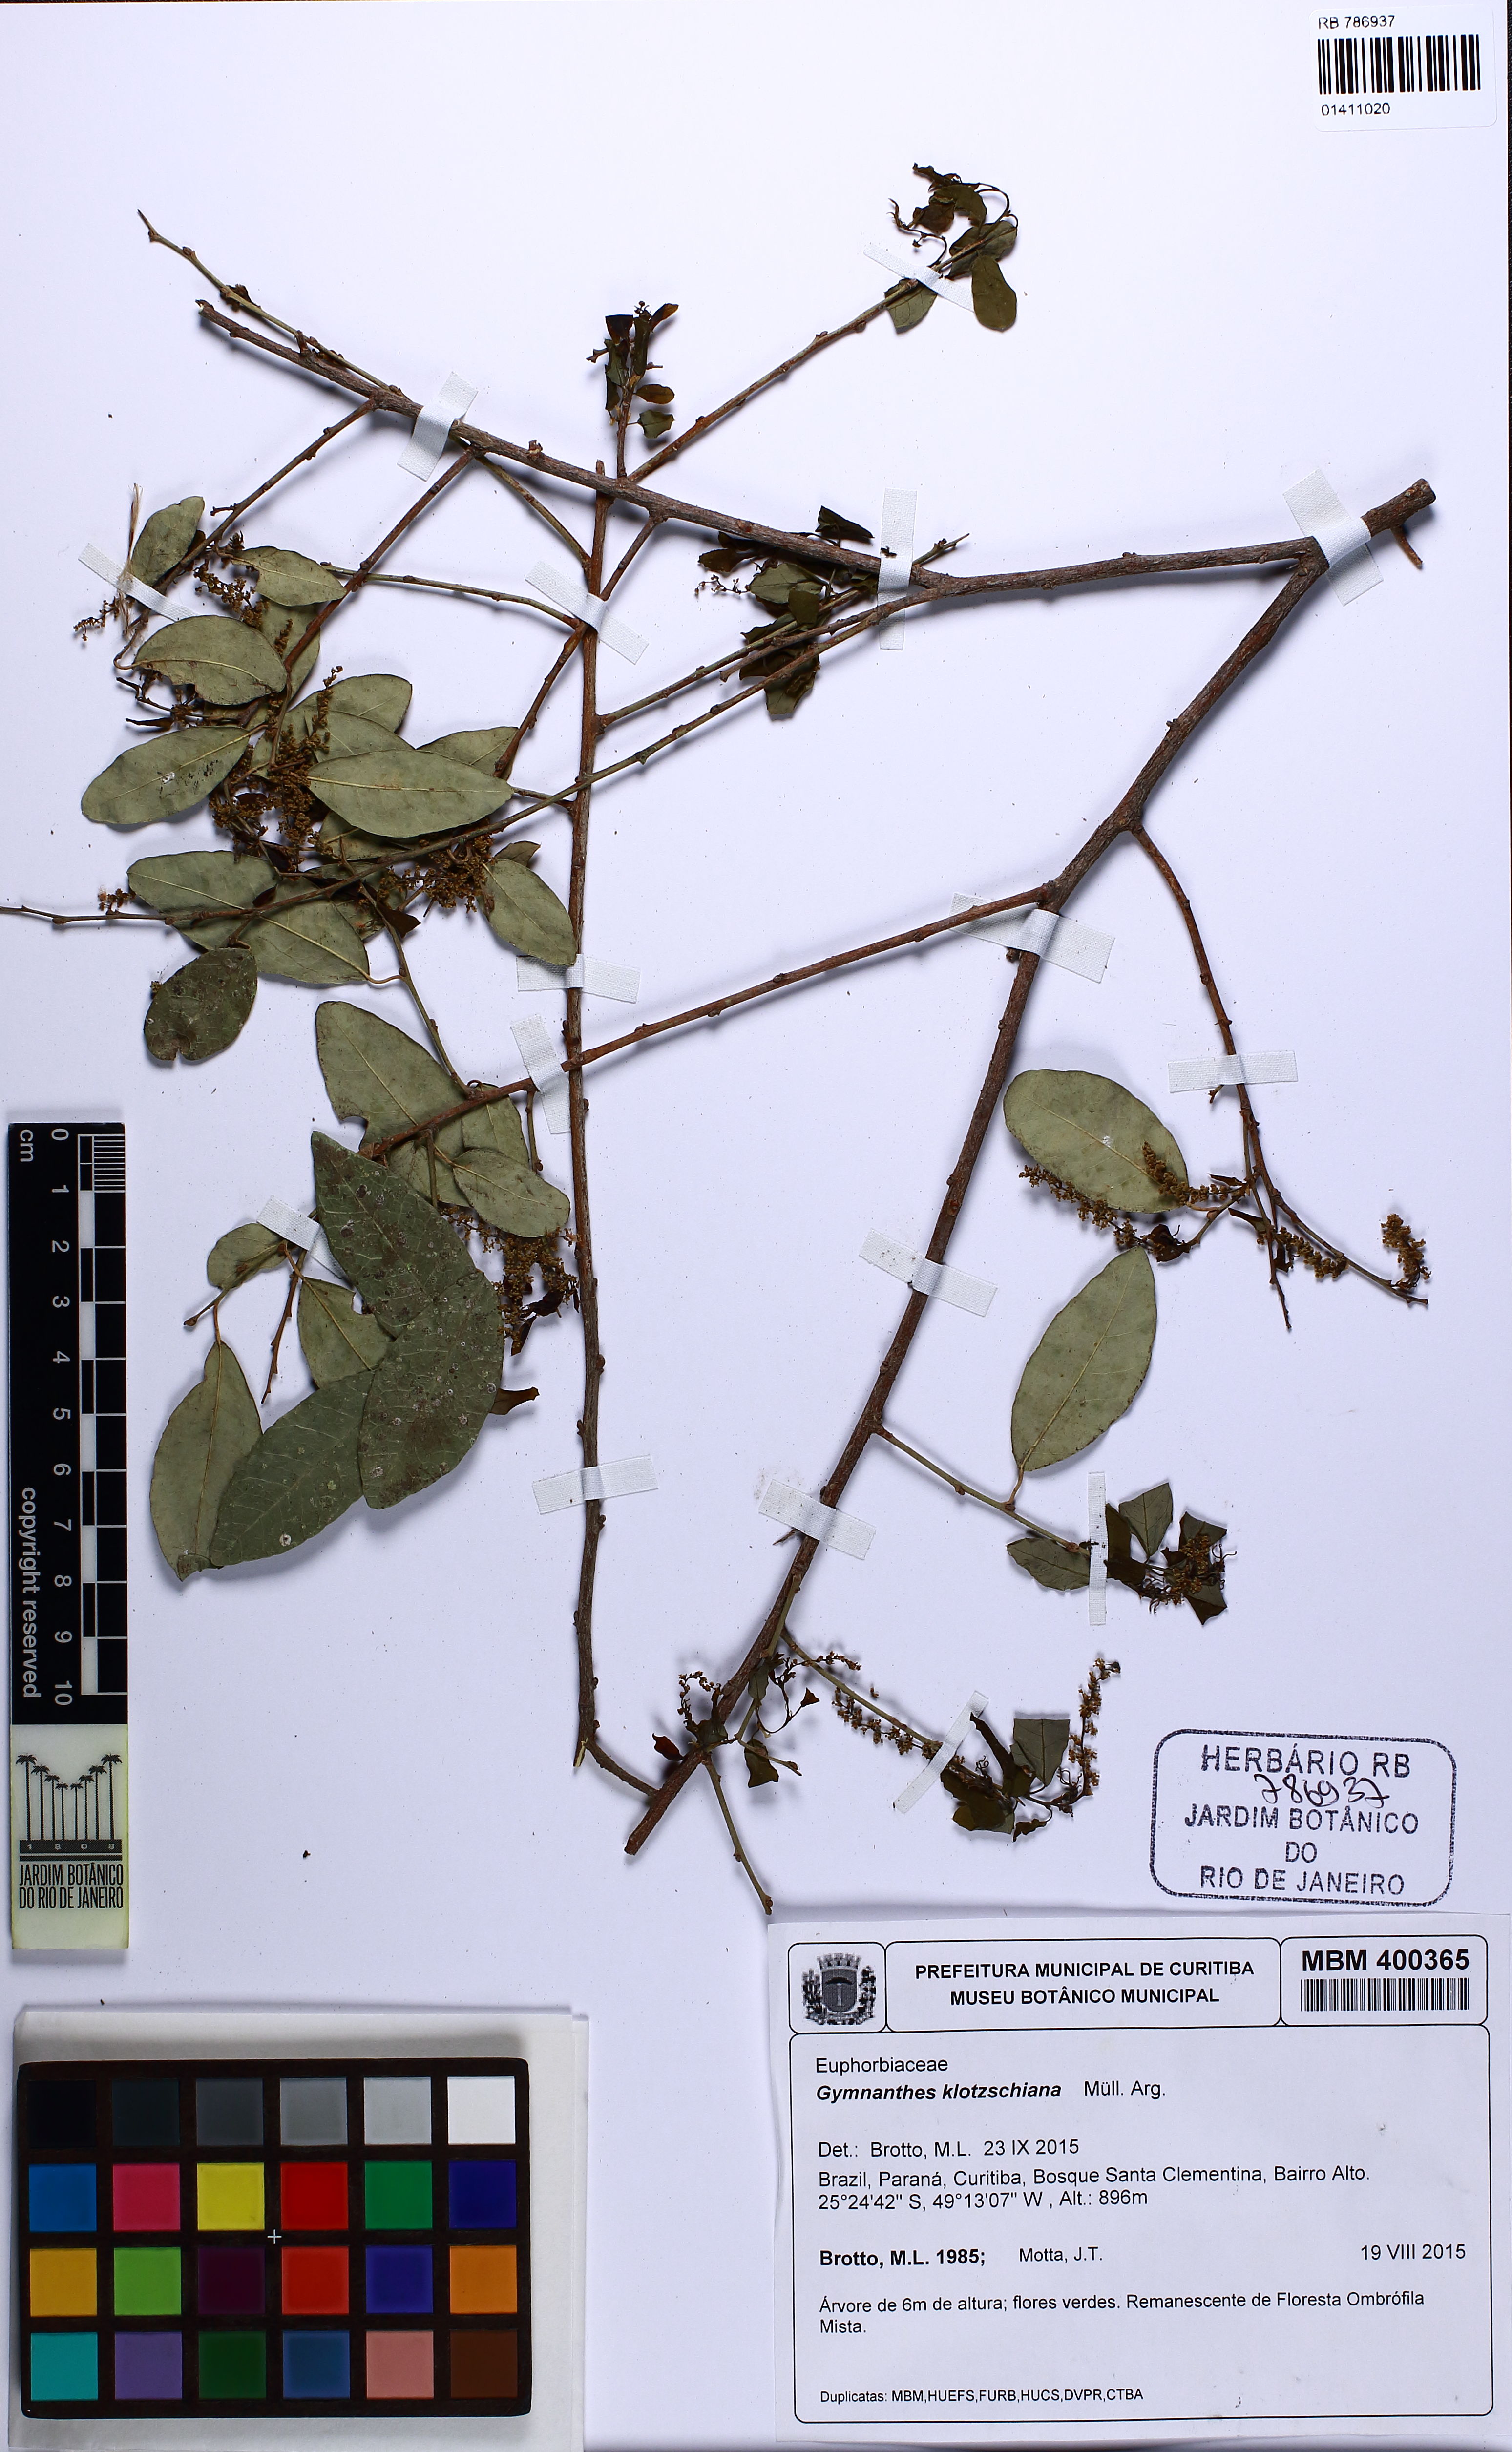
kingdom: Plantae
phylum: Tracheophyta
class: Magnoliopsida
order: Malpighiales
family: Euphorbiaceae
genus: Sebastiania
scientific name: Sebastiania klotzschiana
